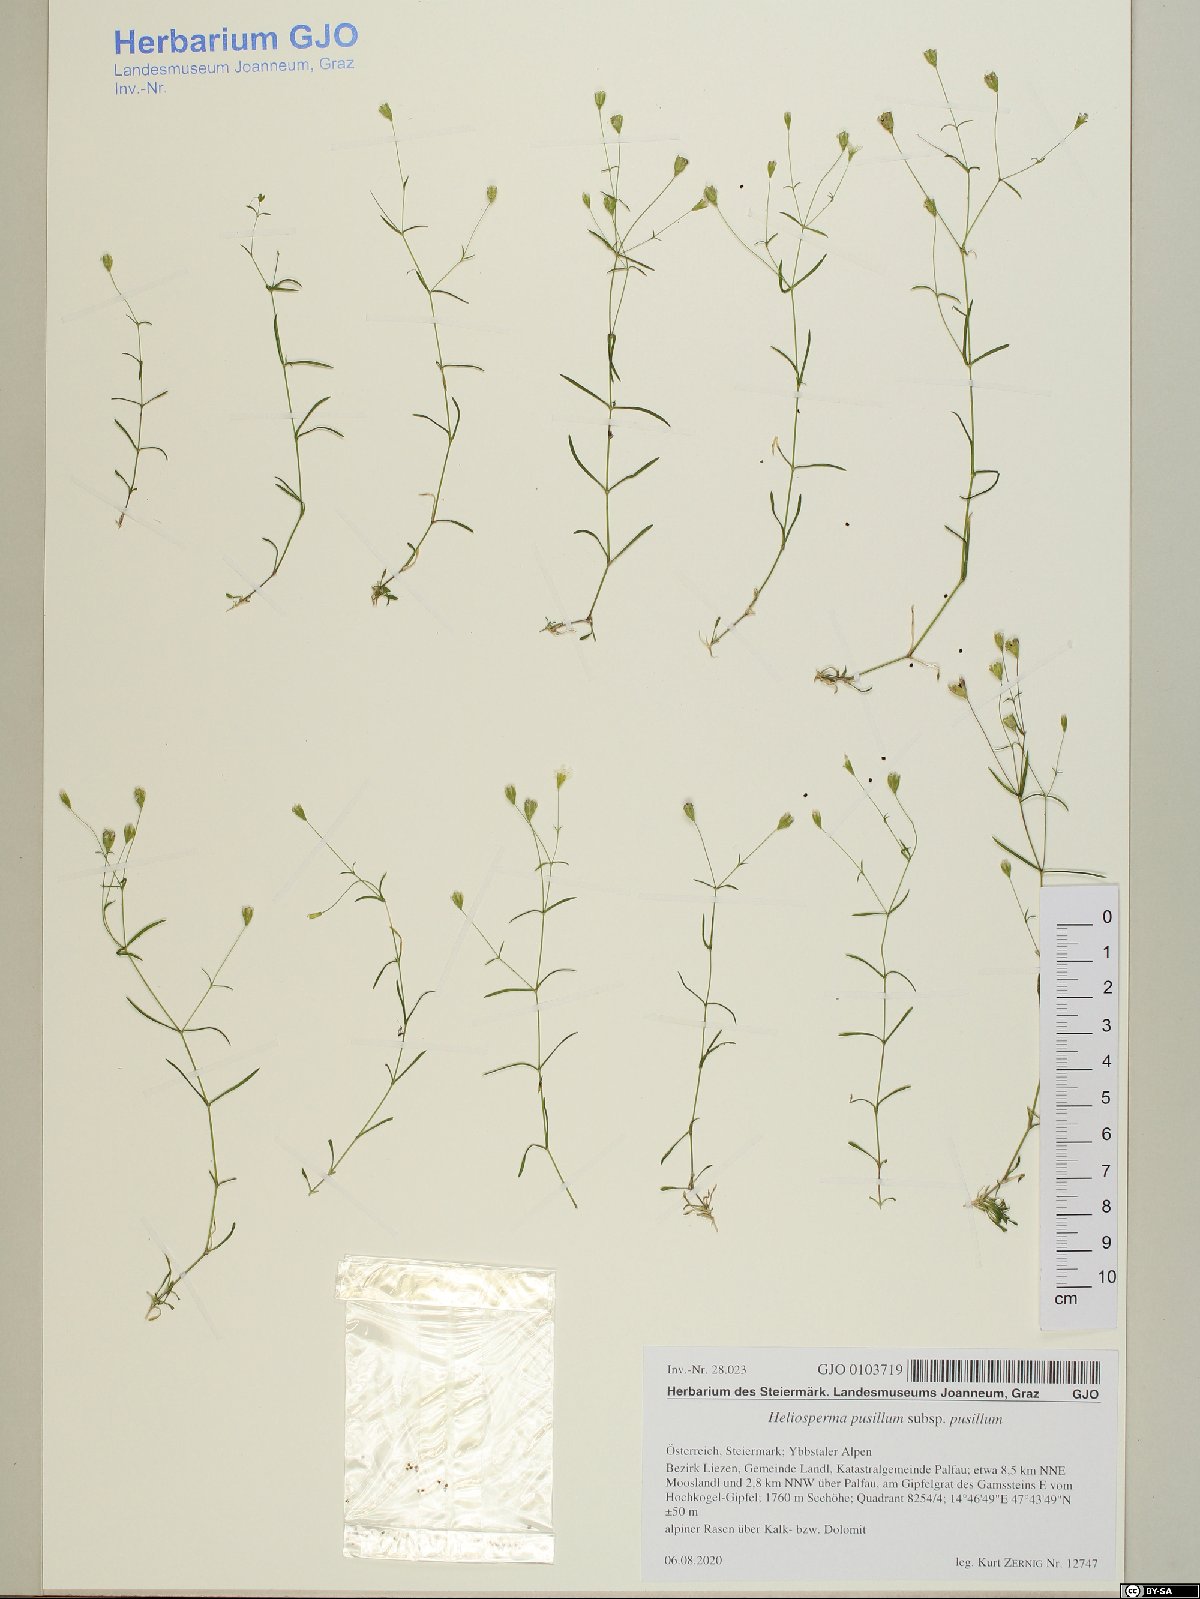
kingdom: Plantae
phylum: Tracheophyta
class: Magnoliopsida
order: Caryophyllales
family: Caryophyllaceae
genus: Heliosperma
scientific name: Heliosperma pusillum
